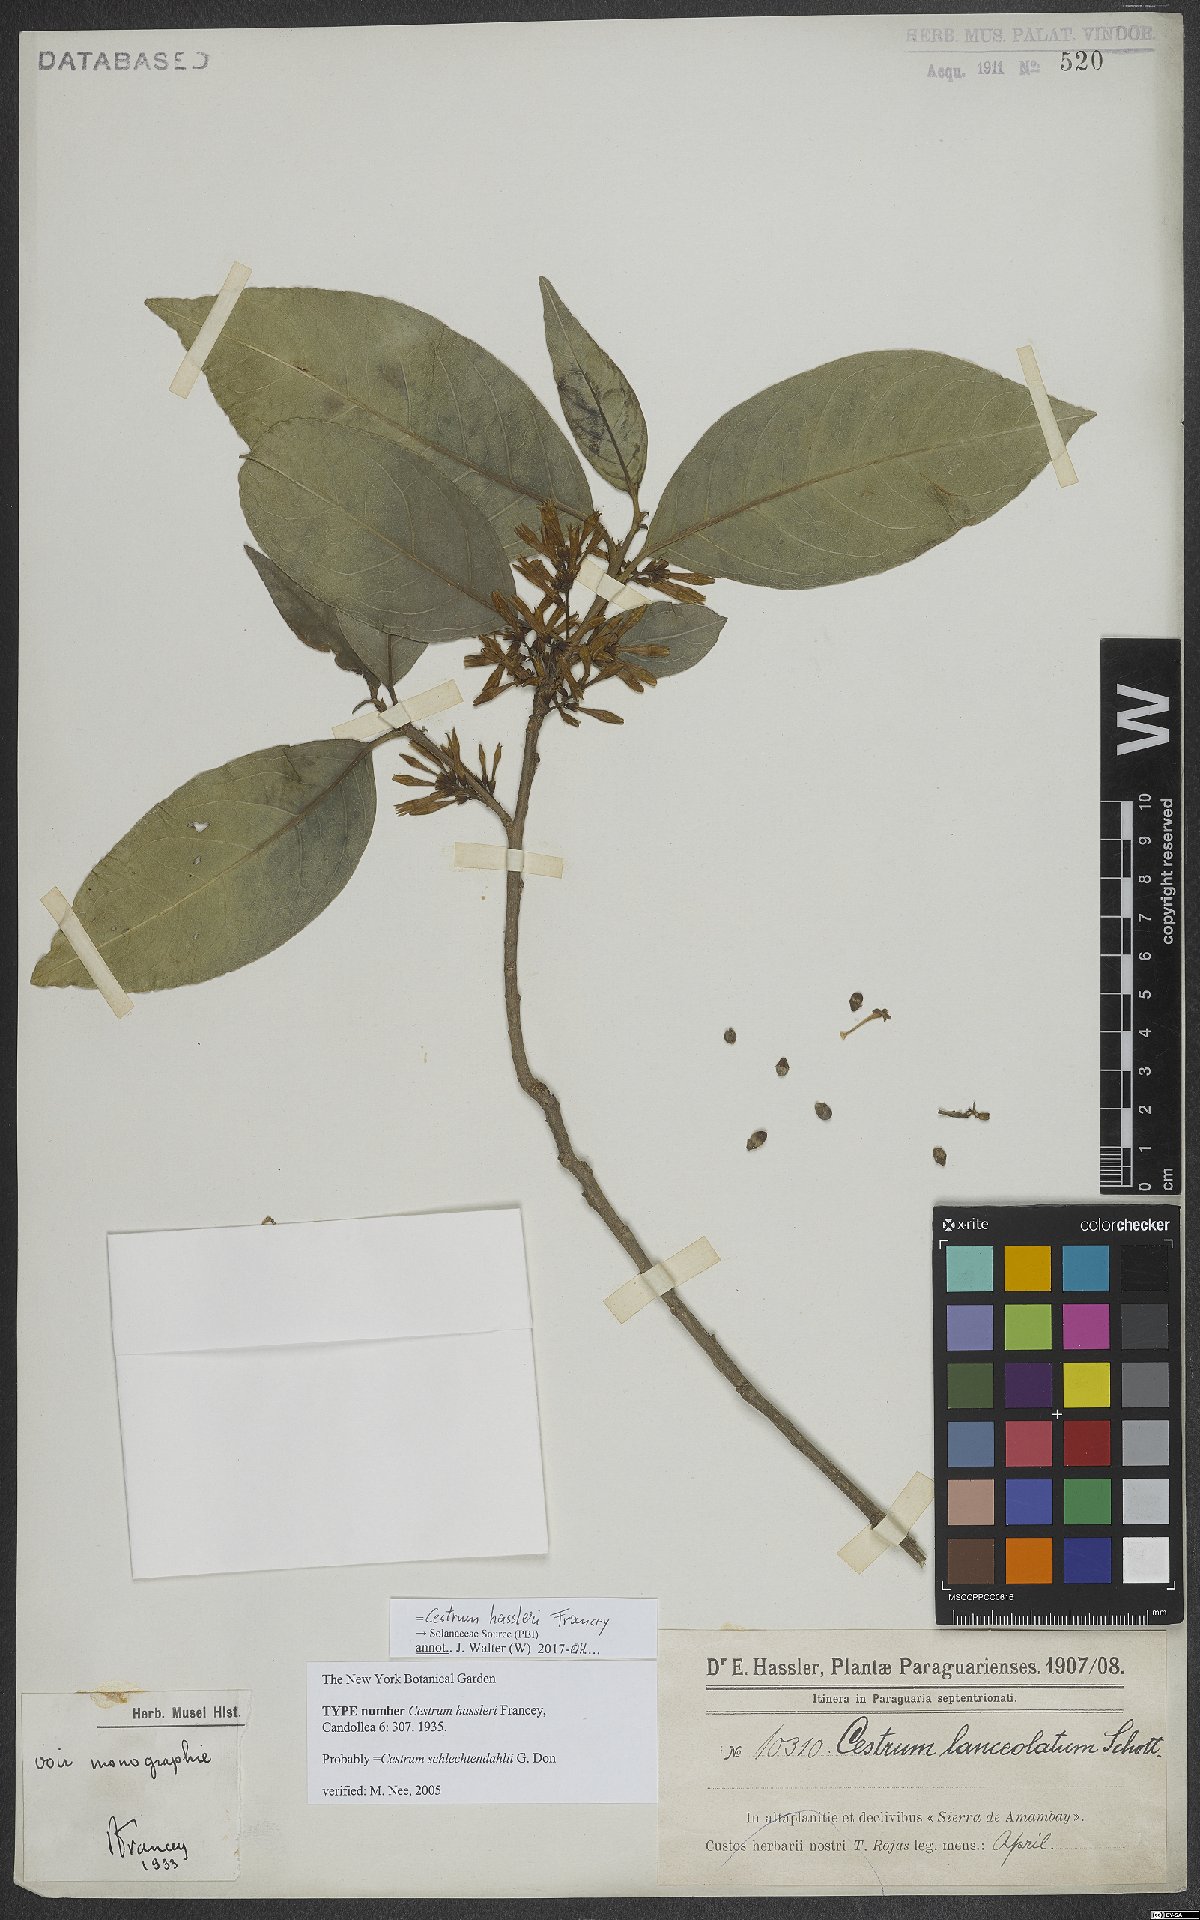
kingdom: Plantae
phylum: Tracheophyta
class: Magnoliopsida
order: Solanales
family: Solanaceae
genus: Cestrum
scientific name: Cestrum hassleri
